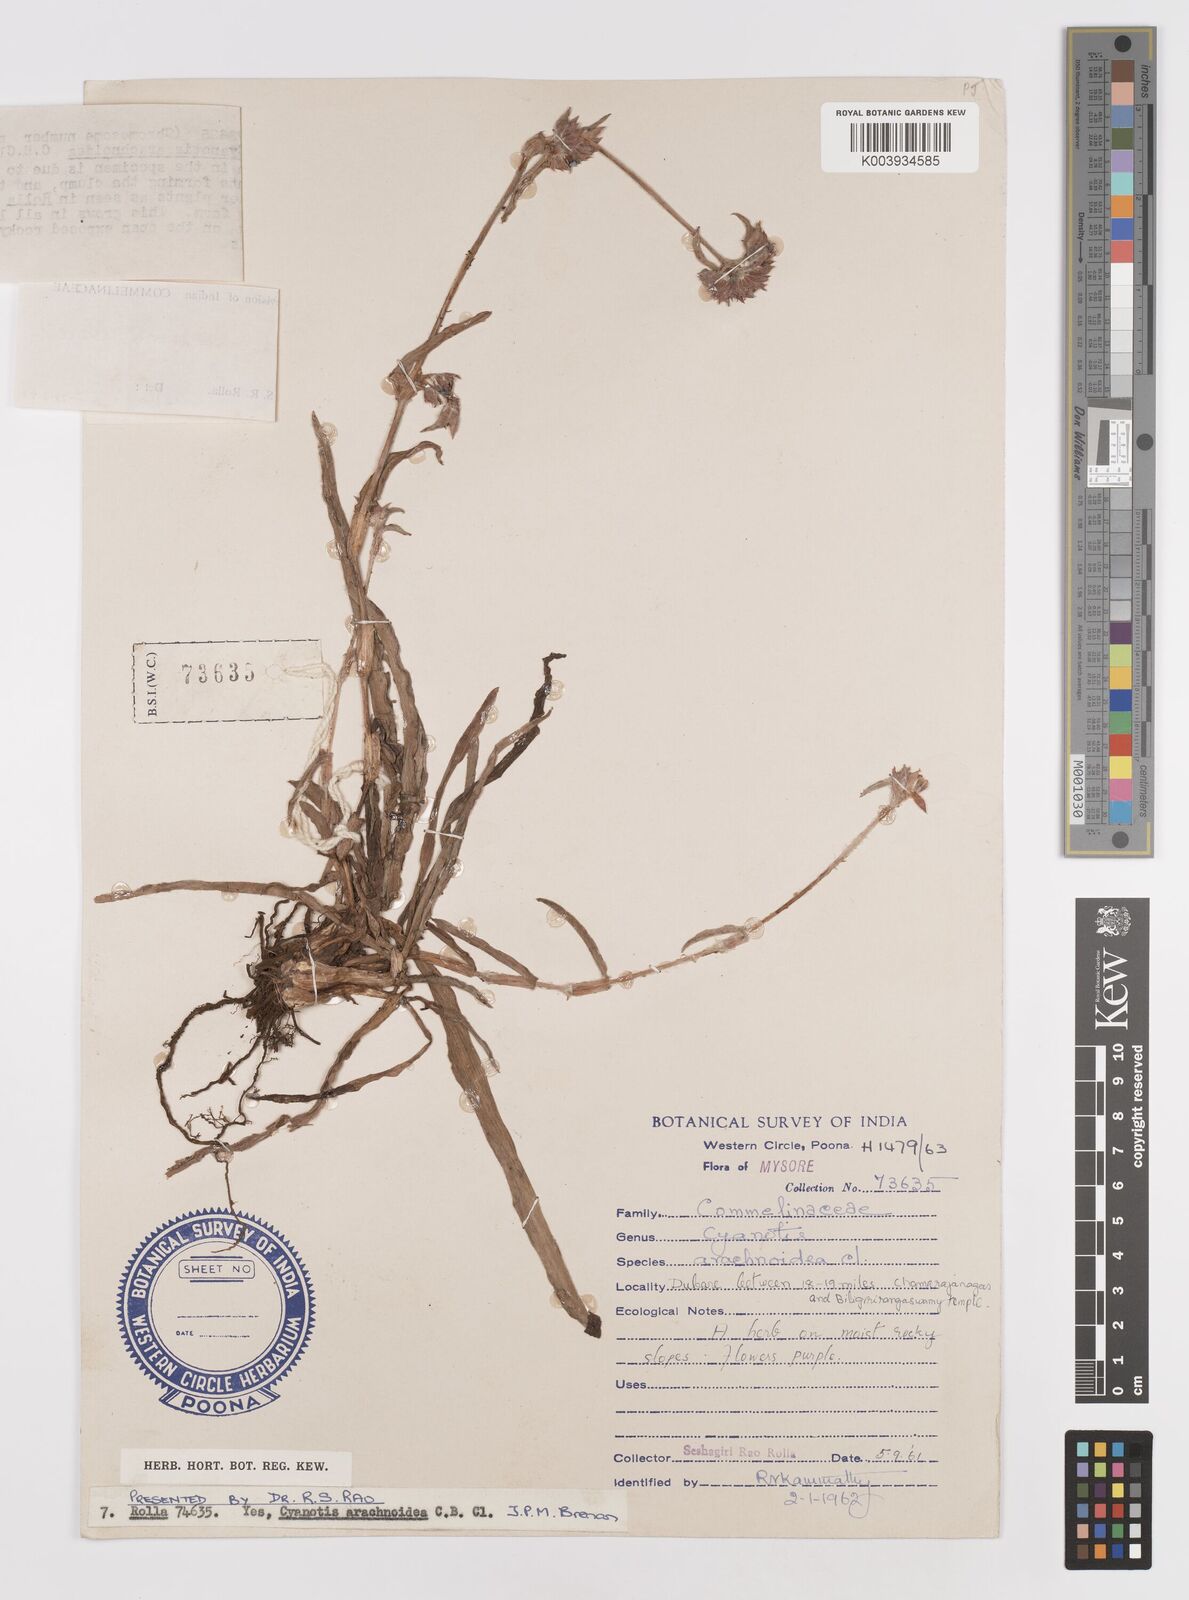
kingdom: Plantae
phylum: Tracheophyta
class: Liliopsida
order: Commelinales
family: Commelinaceae
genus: Cyanotis
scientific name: Cyanotis arachnoidea
